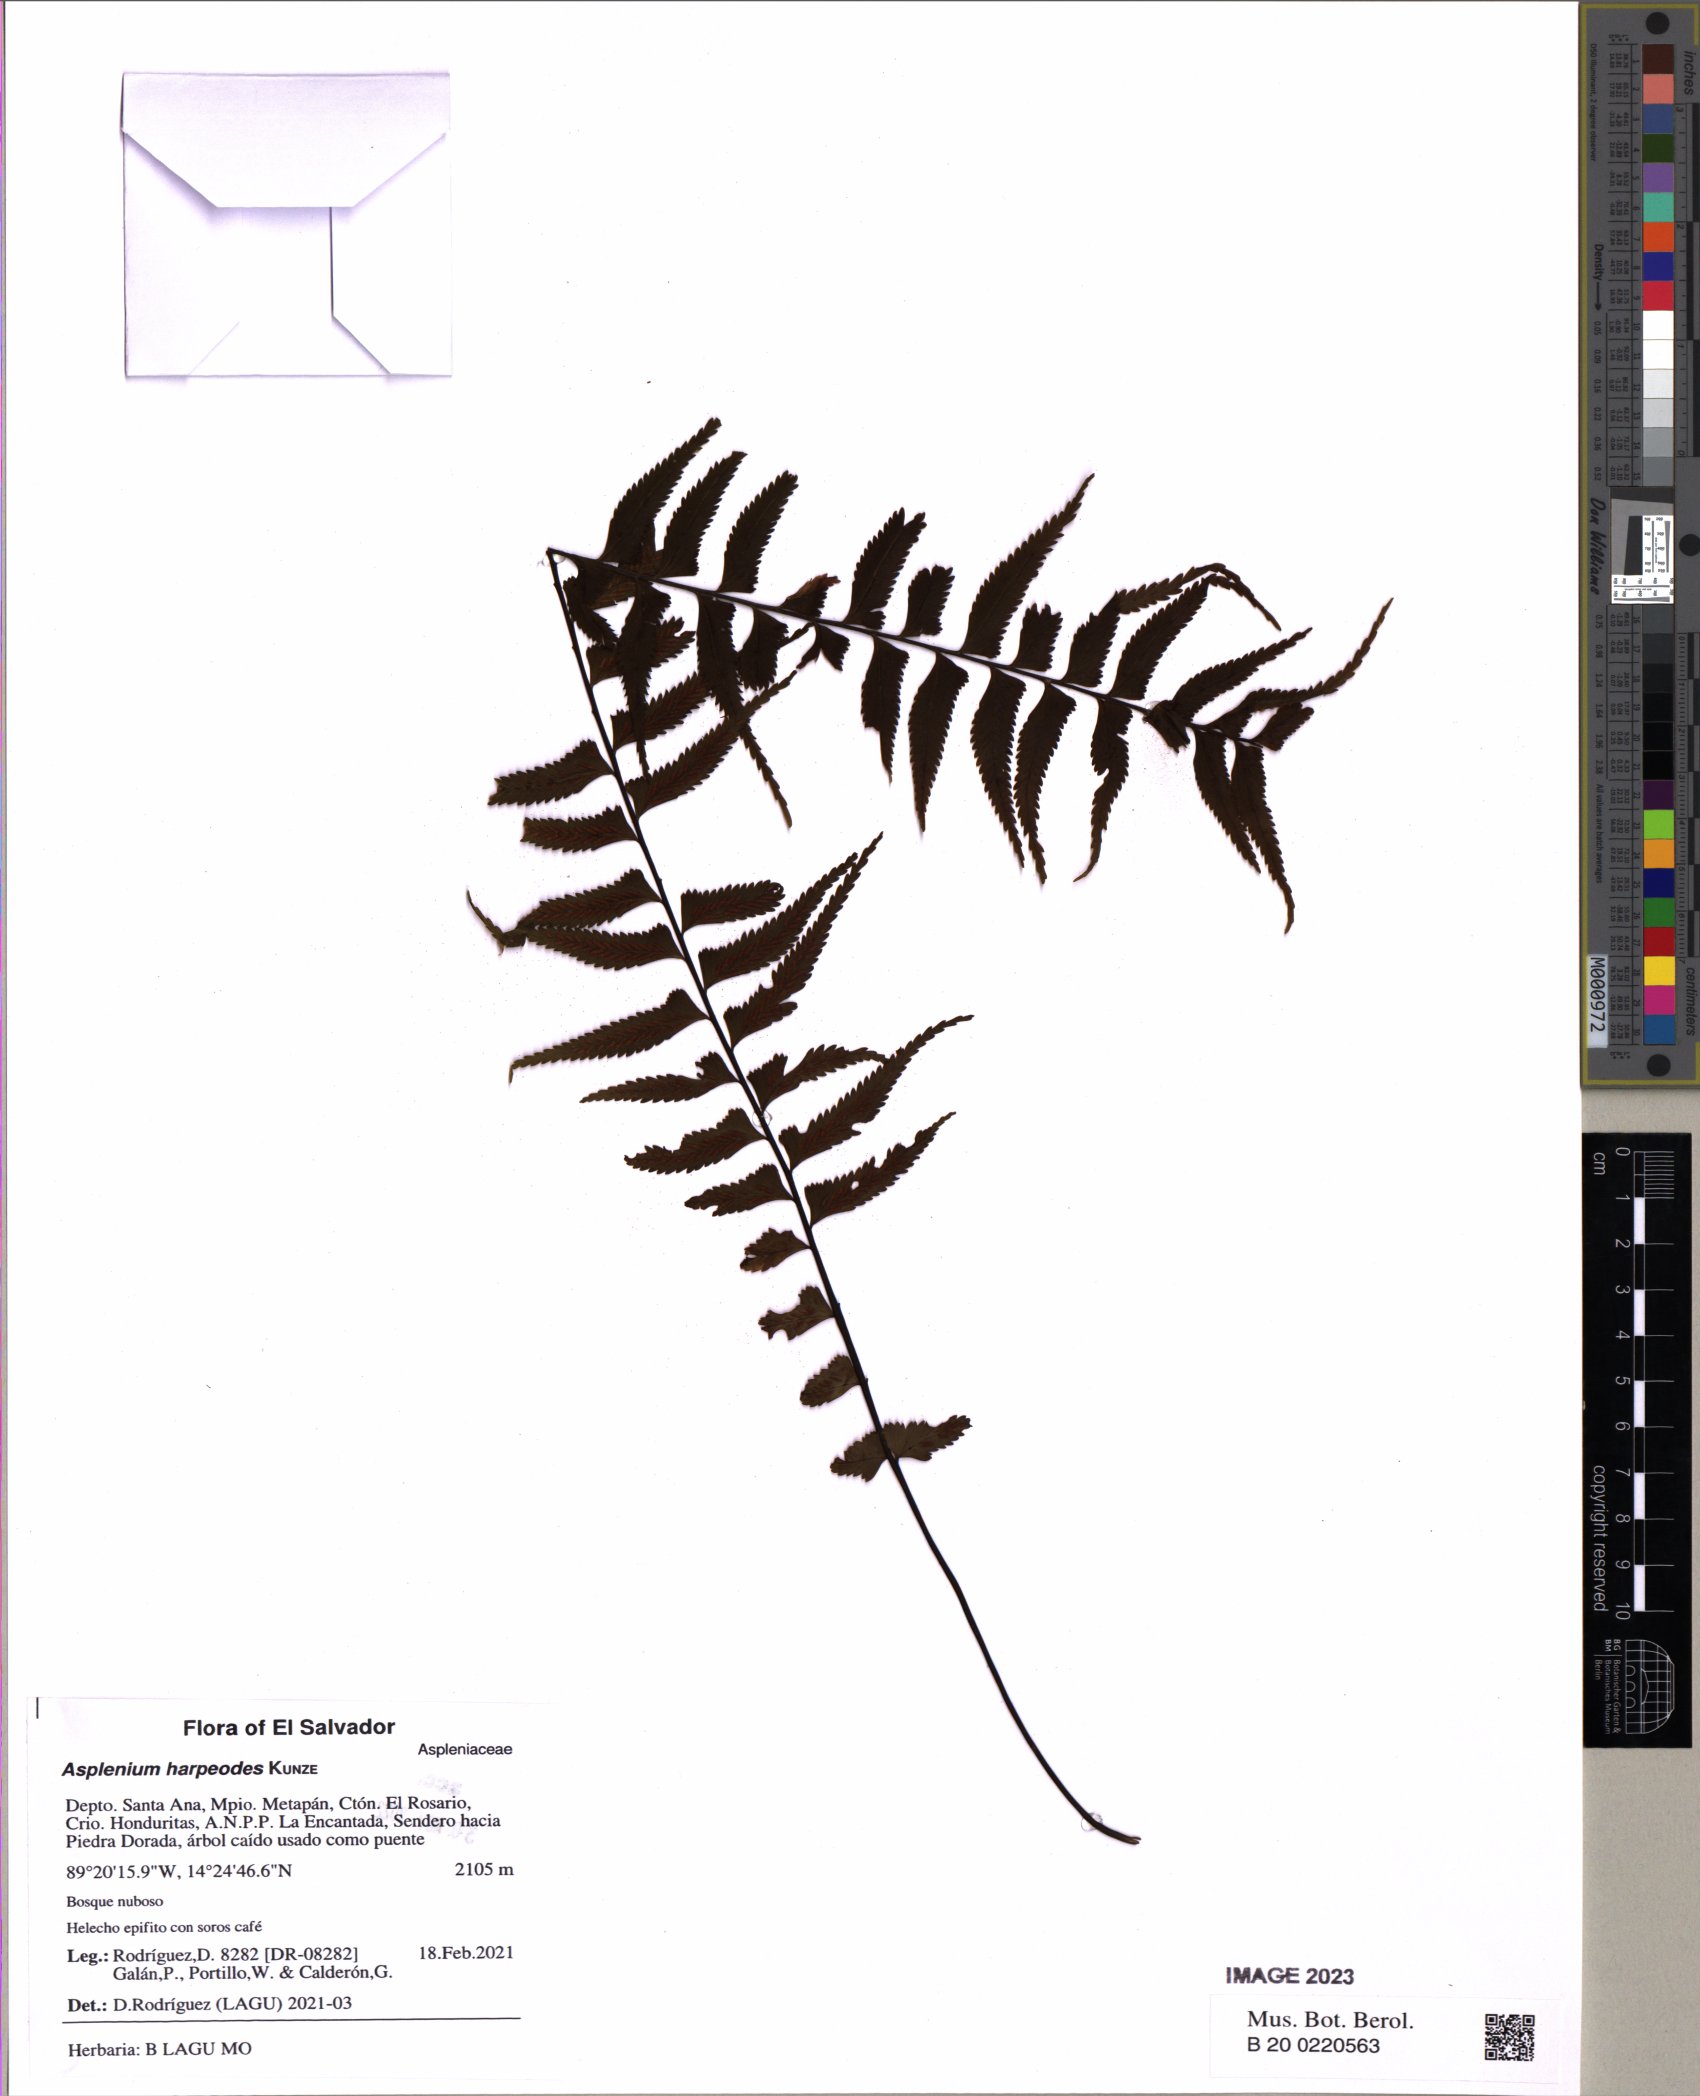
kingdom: Plantae
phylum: Tracheophyta
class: Polypodiopsida
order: Polypodiales
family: Aspleniaceae
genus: Asplenium
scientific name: Asplenium harpeodes
